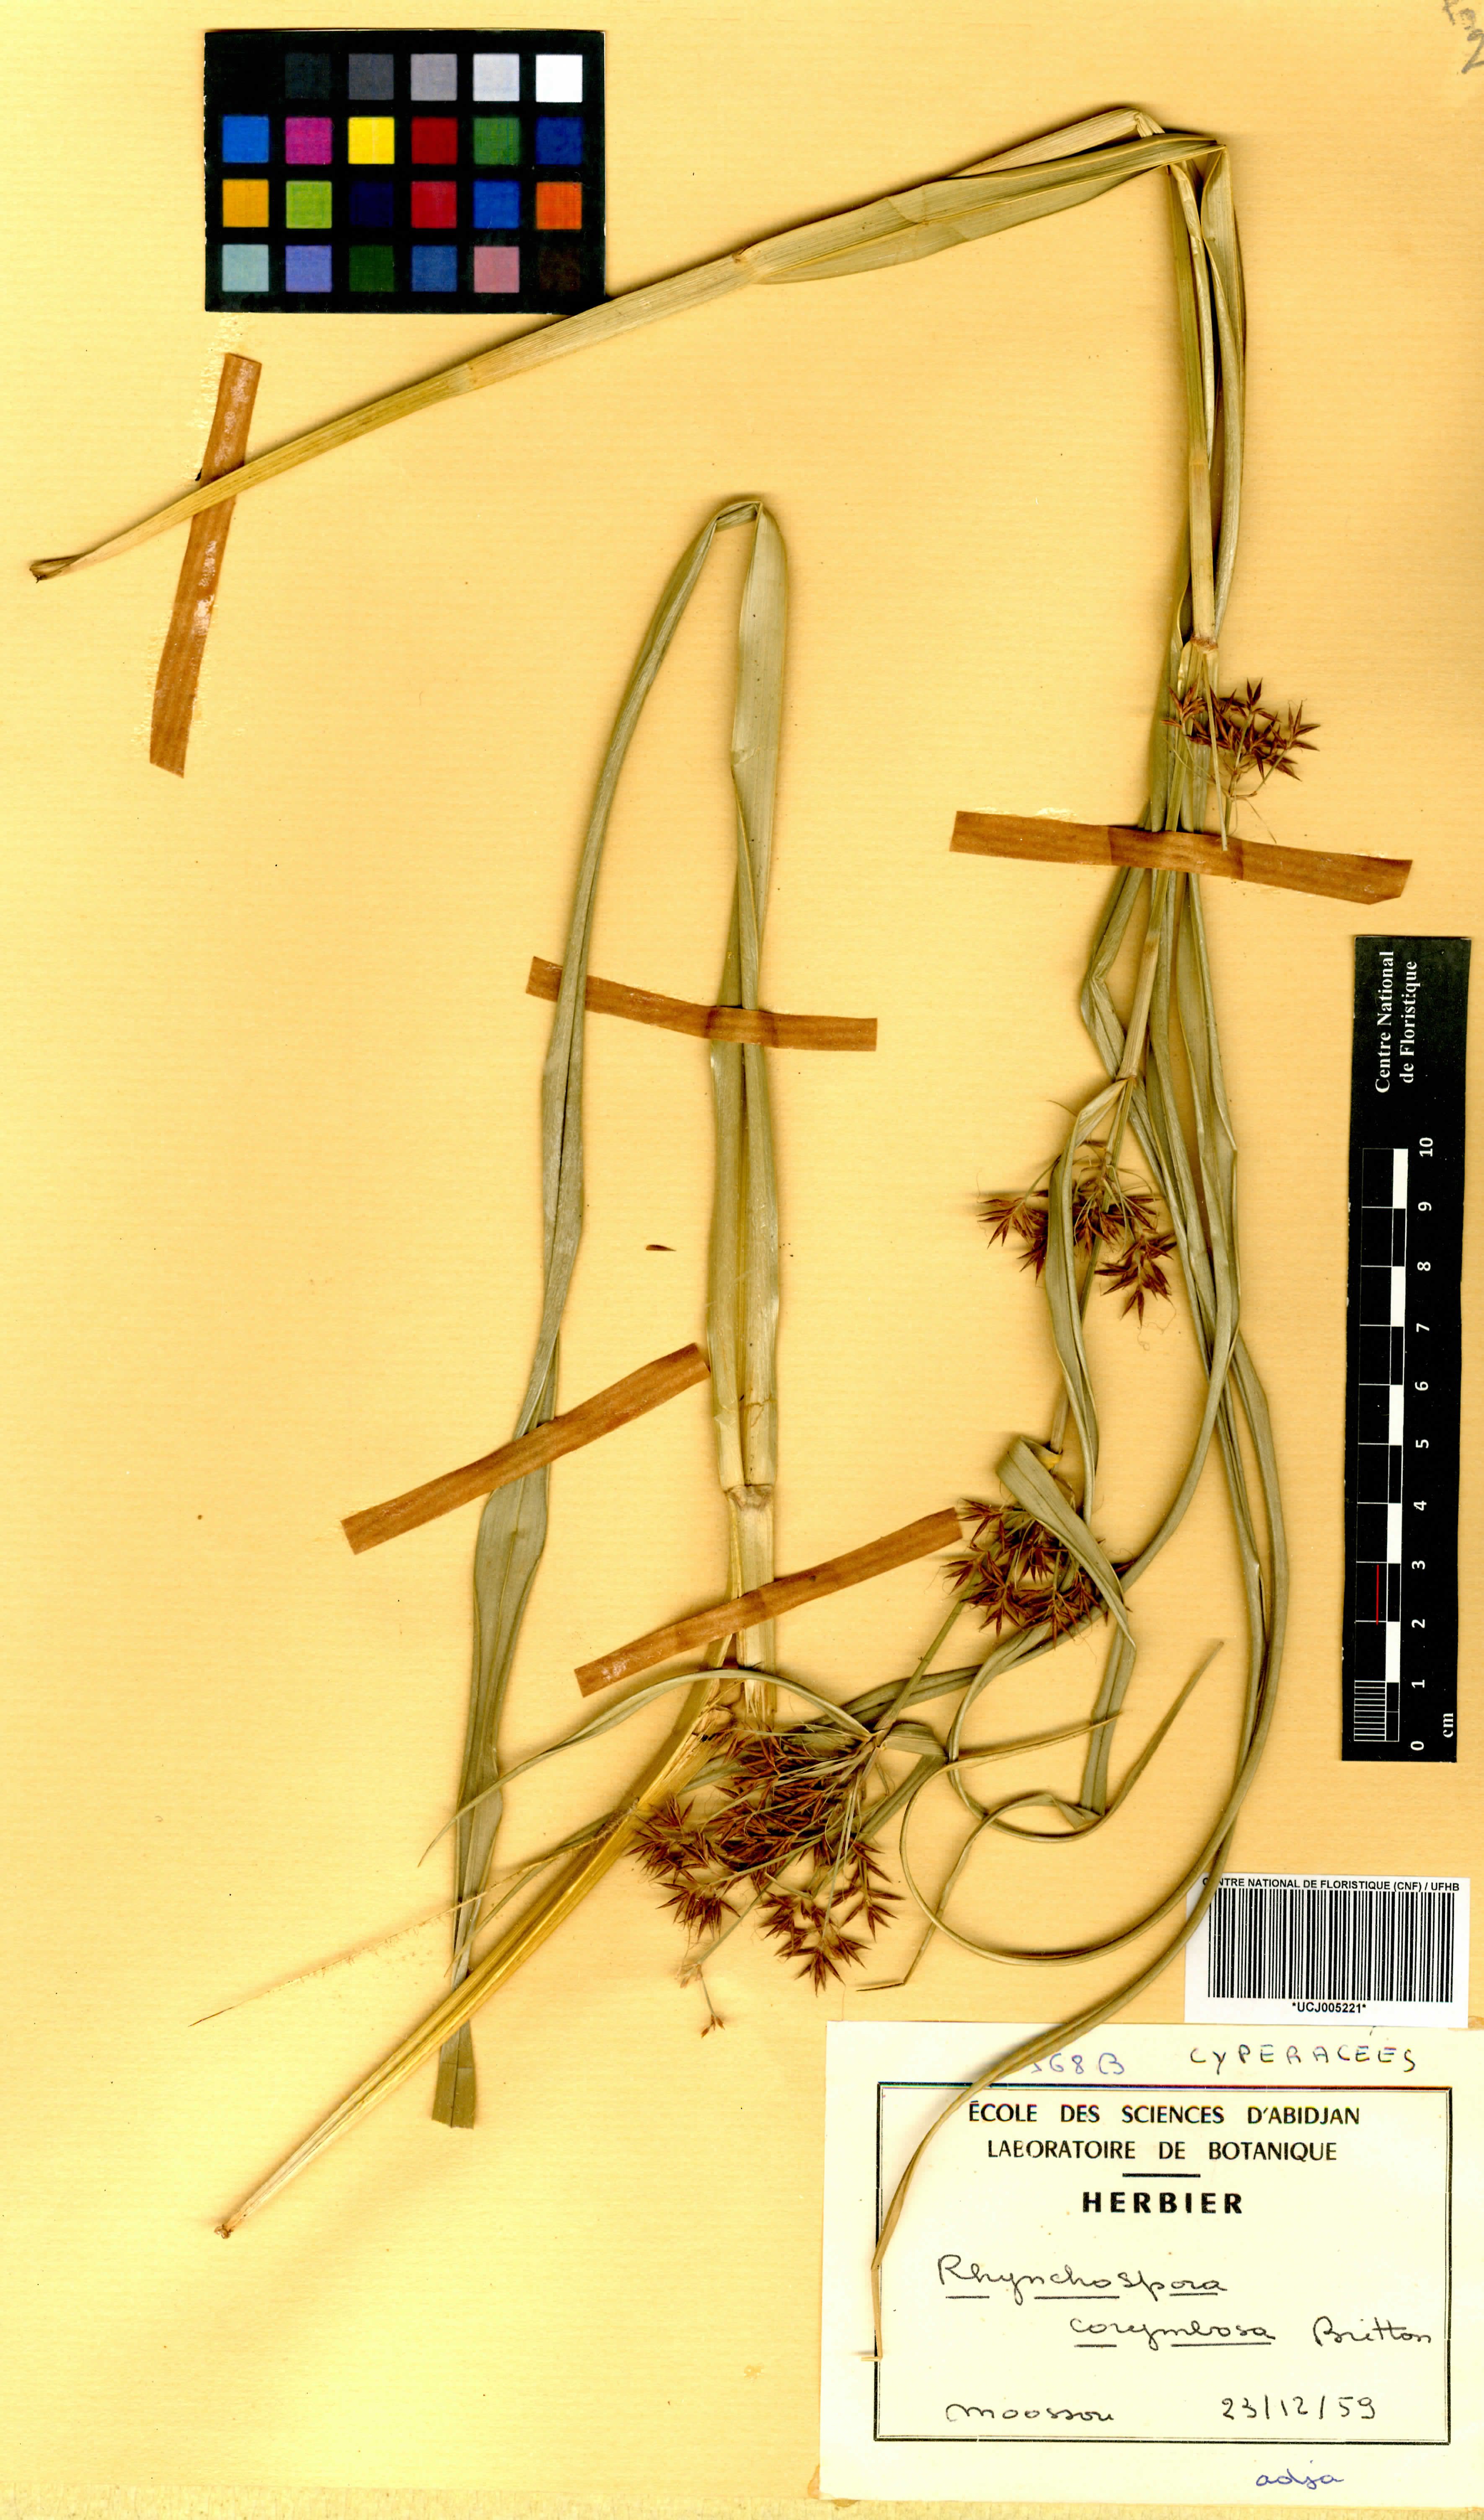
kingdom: Plantae
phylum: Tracheophyta
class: Liliopsida
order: Poales
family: Cyperaceae
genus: Rhynchospora
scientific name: Rhynchospora corymbosa
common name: Golden beak sedge
